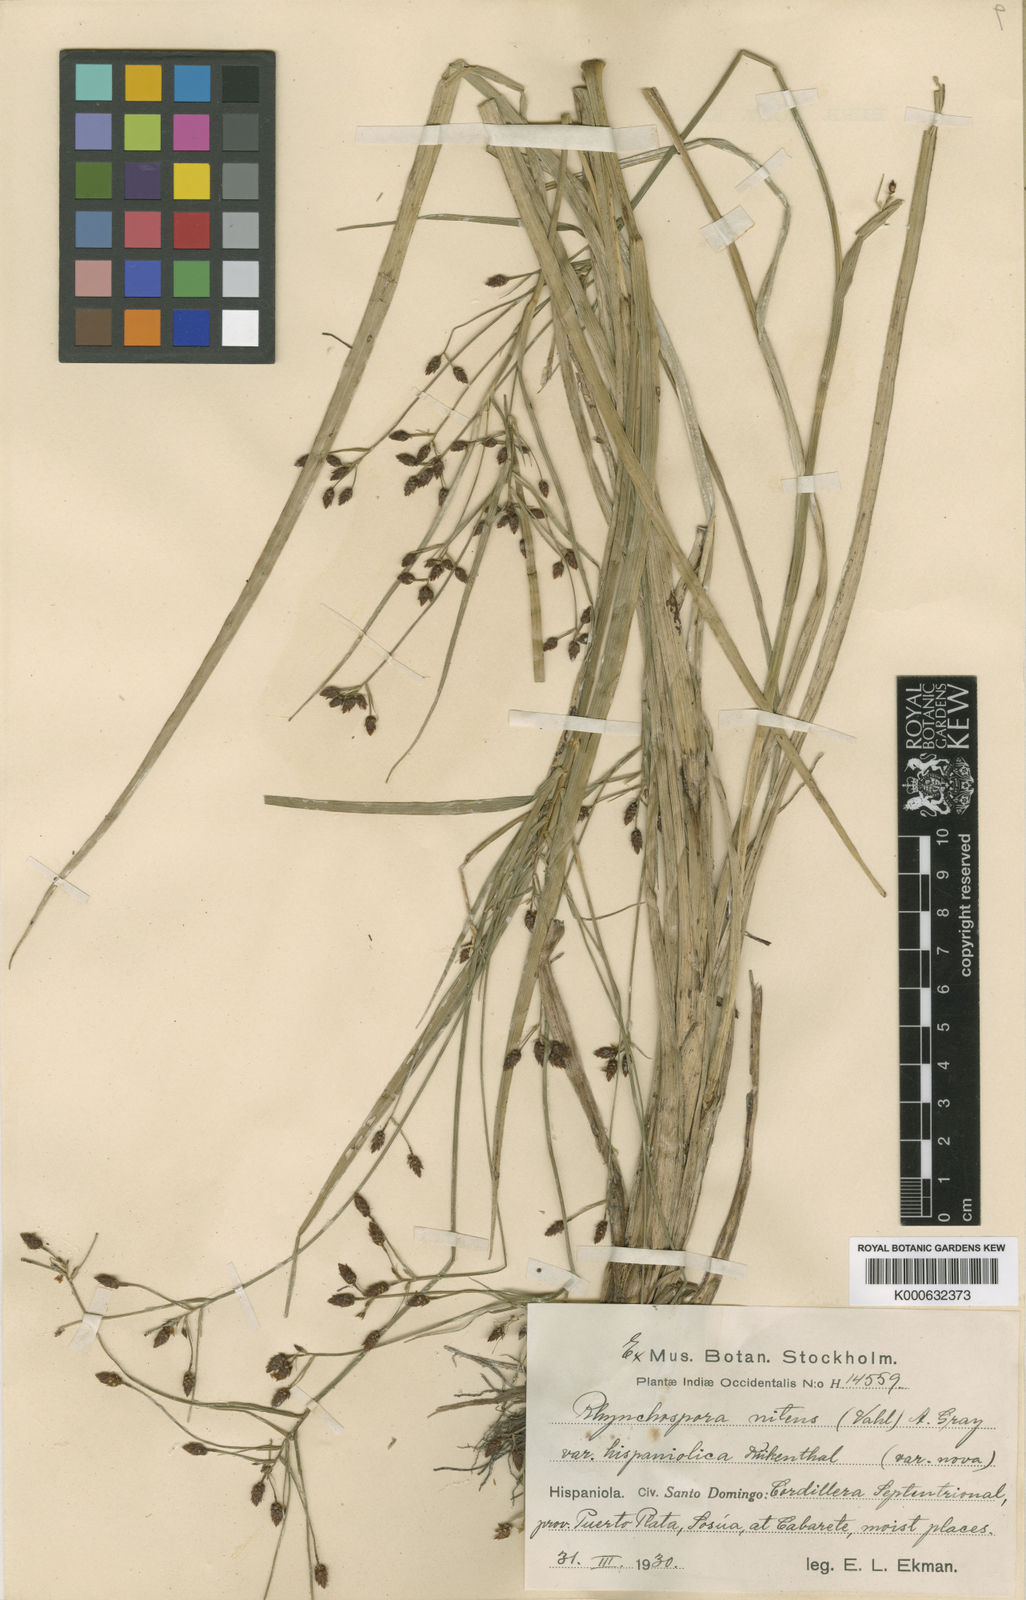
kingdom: Plantae
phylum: Tracheophyta
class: Liliopsida
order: Poales
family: Cyperaceae
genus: Rhynchospora
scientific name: Rhynchospora eximia
